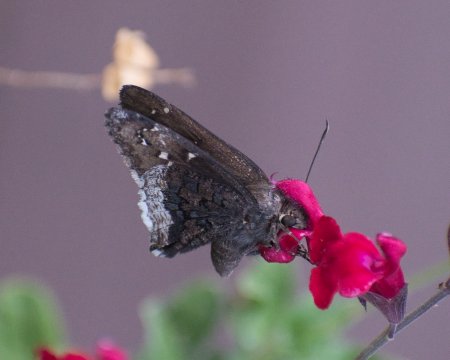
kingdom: Animalia
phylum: Arthropoda
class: Insecta
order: Lepidoptera
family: Hesperiidae
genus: Achalarus
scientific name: Achalarus casica
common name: Desert Cloudywing
